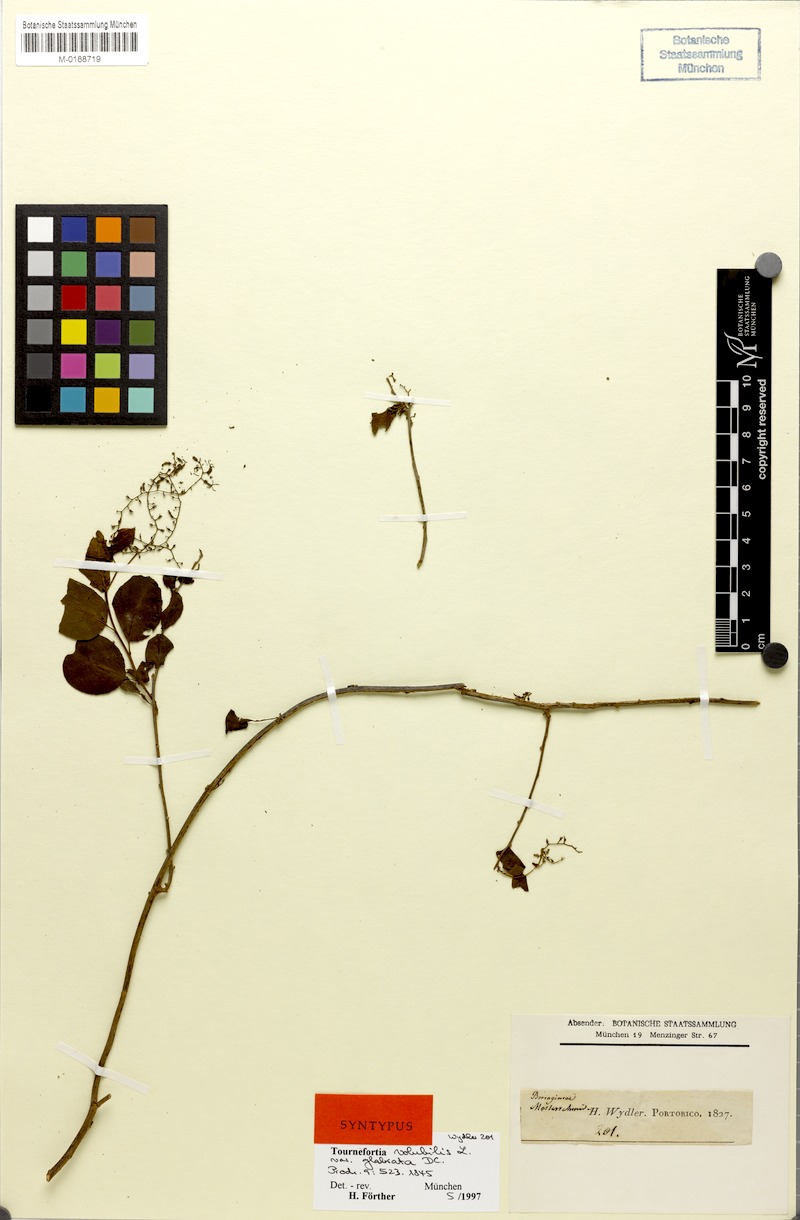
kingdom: Plantae
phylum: Tracheophyta
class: Magnoliopsida
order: Boraginales
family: Heliotropiaceae
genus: Tournefortia
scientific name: Tournefortia microphylla
